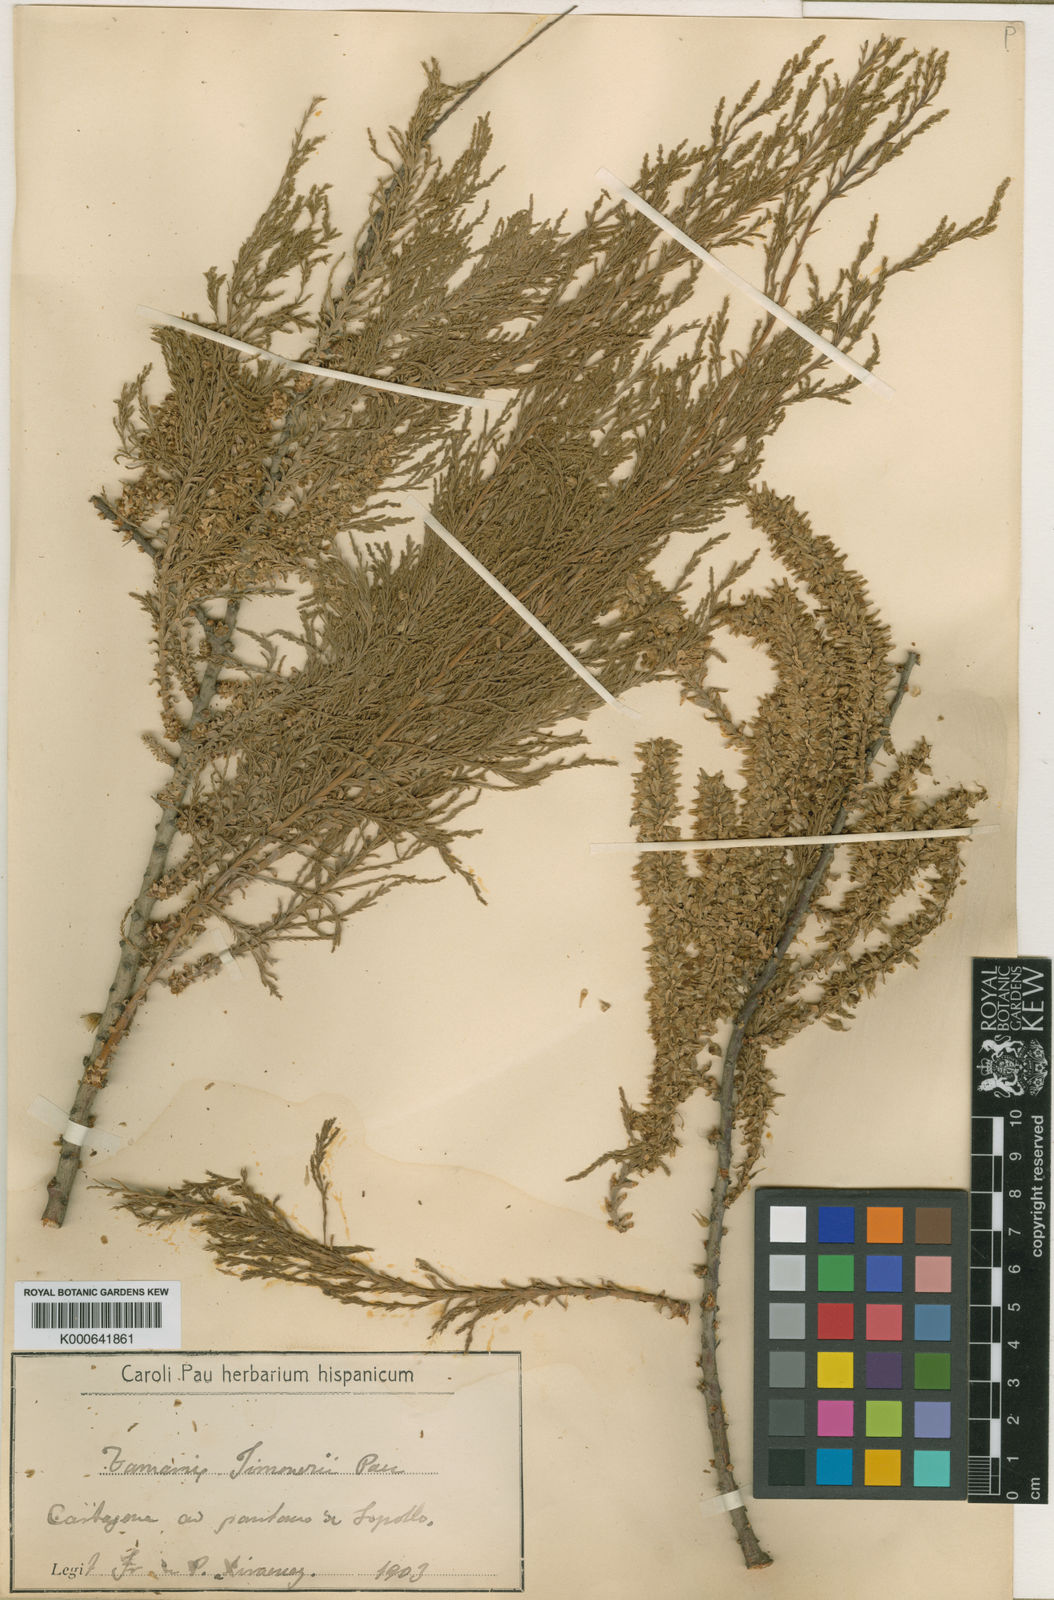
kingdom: Plantae
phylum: Tracheophyta
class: Magnoliopsida
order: Caryophyllales
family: Tamaricaceae
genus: Tamarix
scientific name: Tamarix
